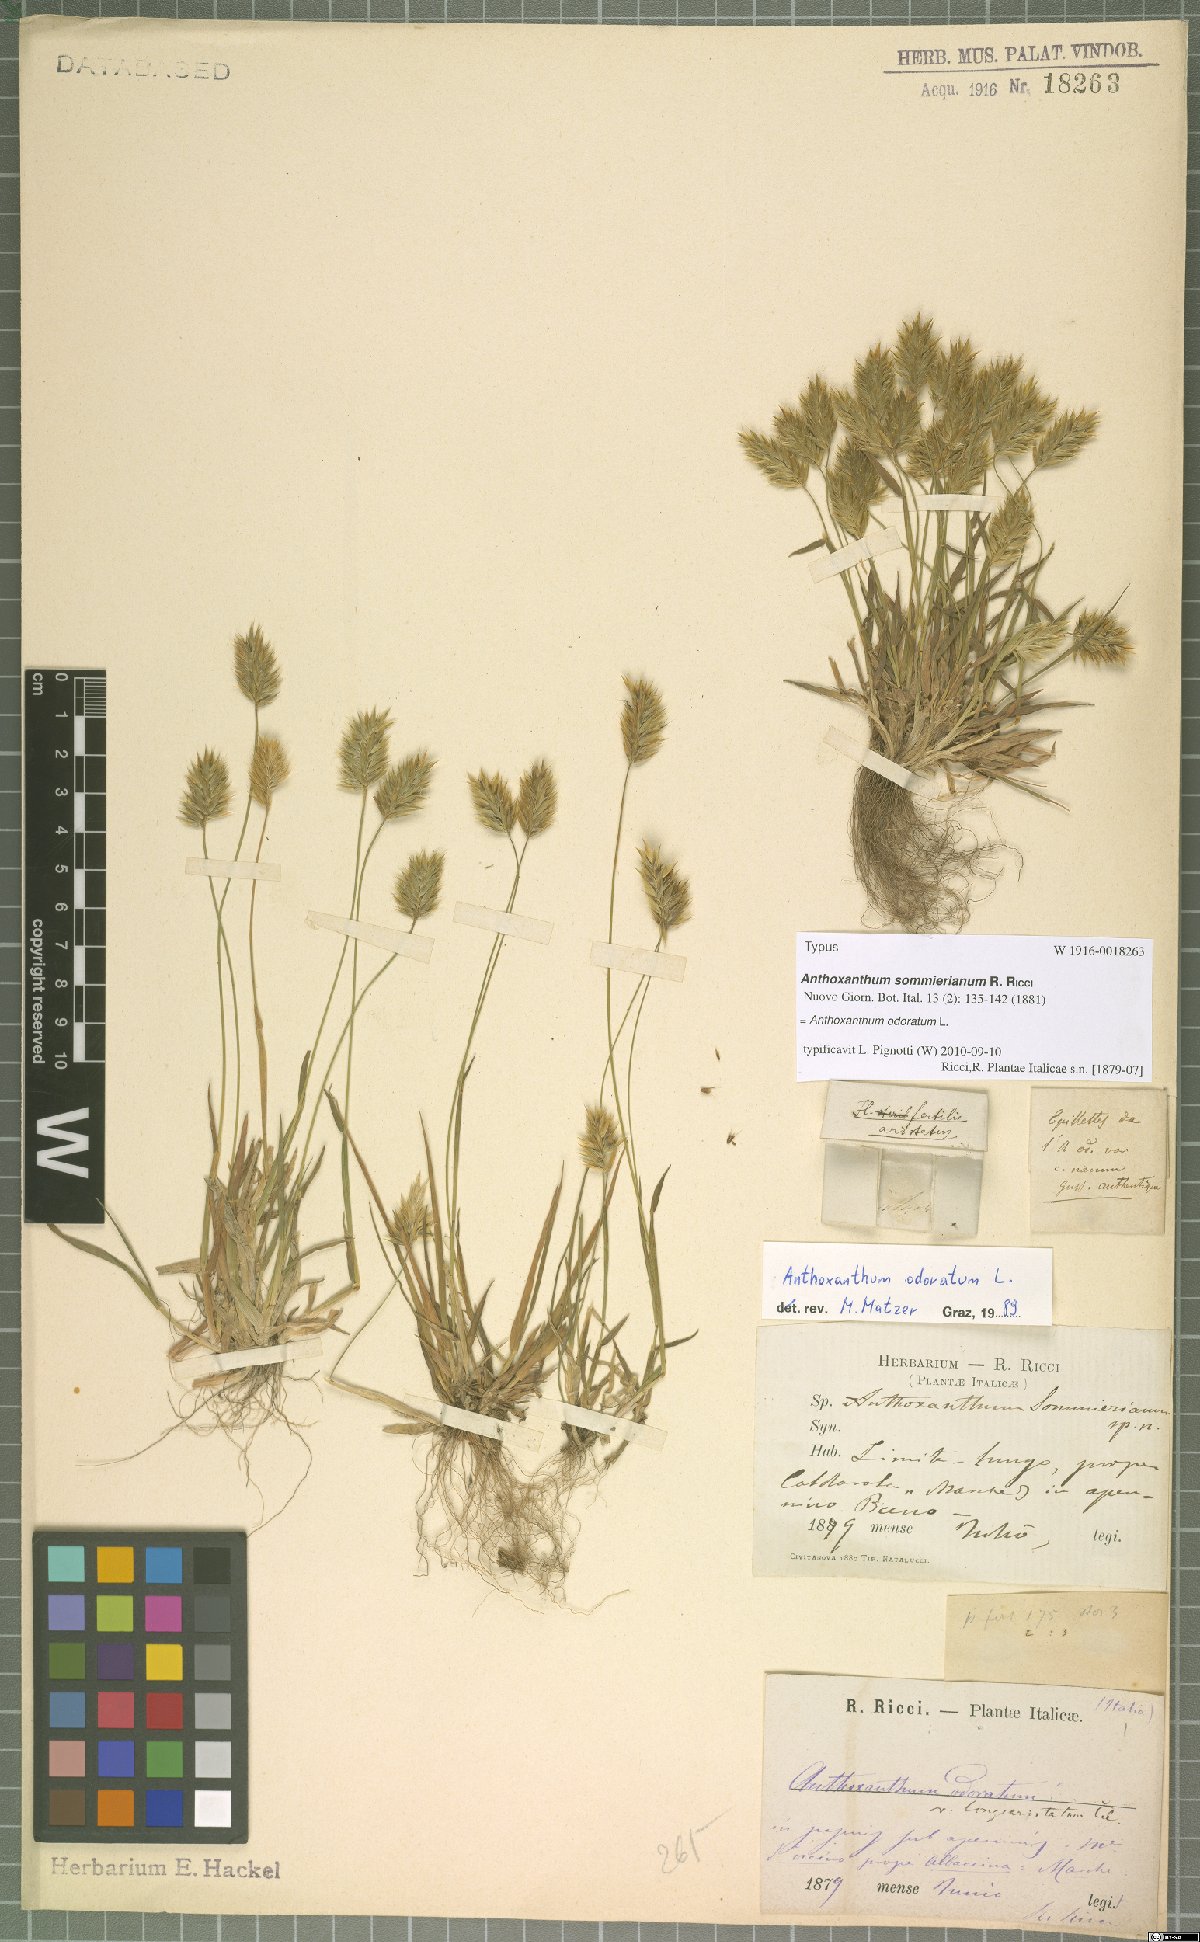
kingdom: Plantae
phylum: Tracheophyta
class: Liliopsida
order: Poales
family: Poaceae
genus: Anthoxanthum
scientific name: Anthoxanthum odoratum
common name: Sweet vernalgrass
